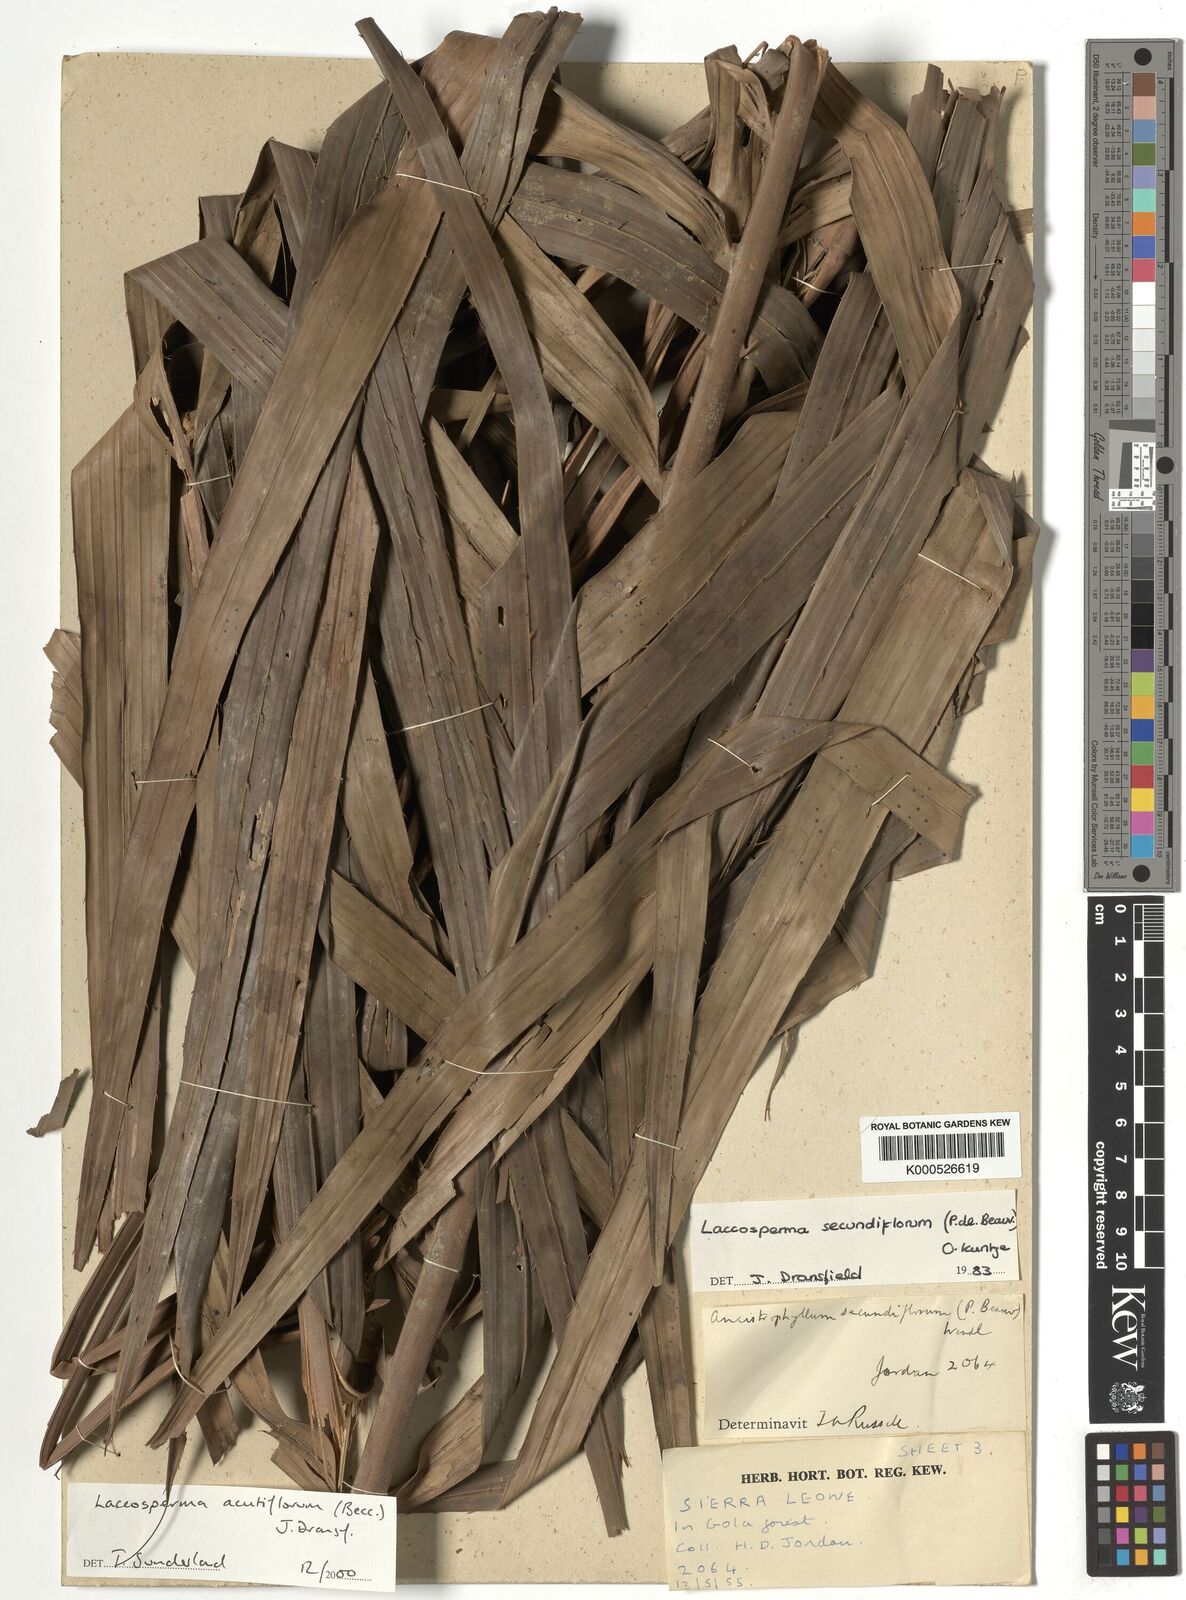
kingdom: Plantae
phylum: Tracheophyta
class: Liliopsida
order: Arecales
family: Arecaceae
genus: Laccosperma
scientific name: Laccosperma acutiflorum
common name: Rattan
